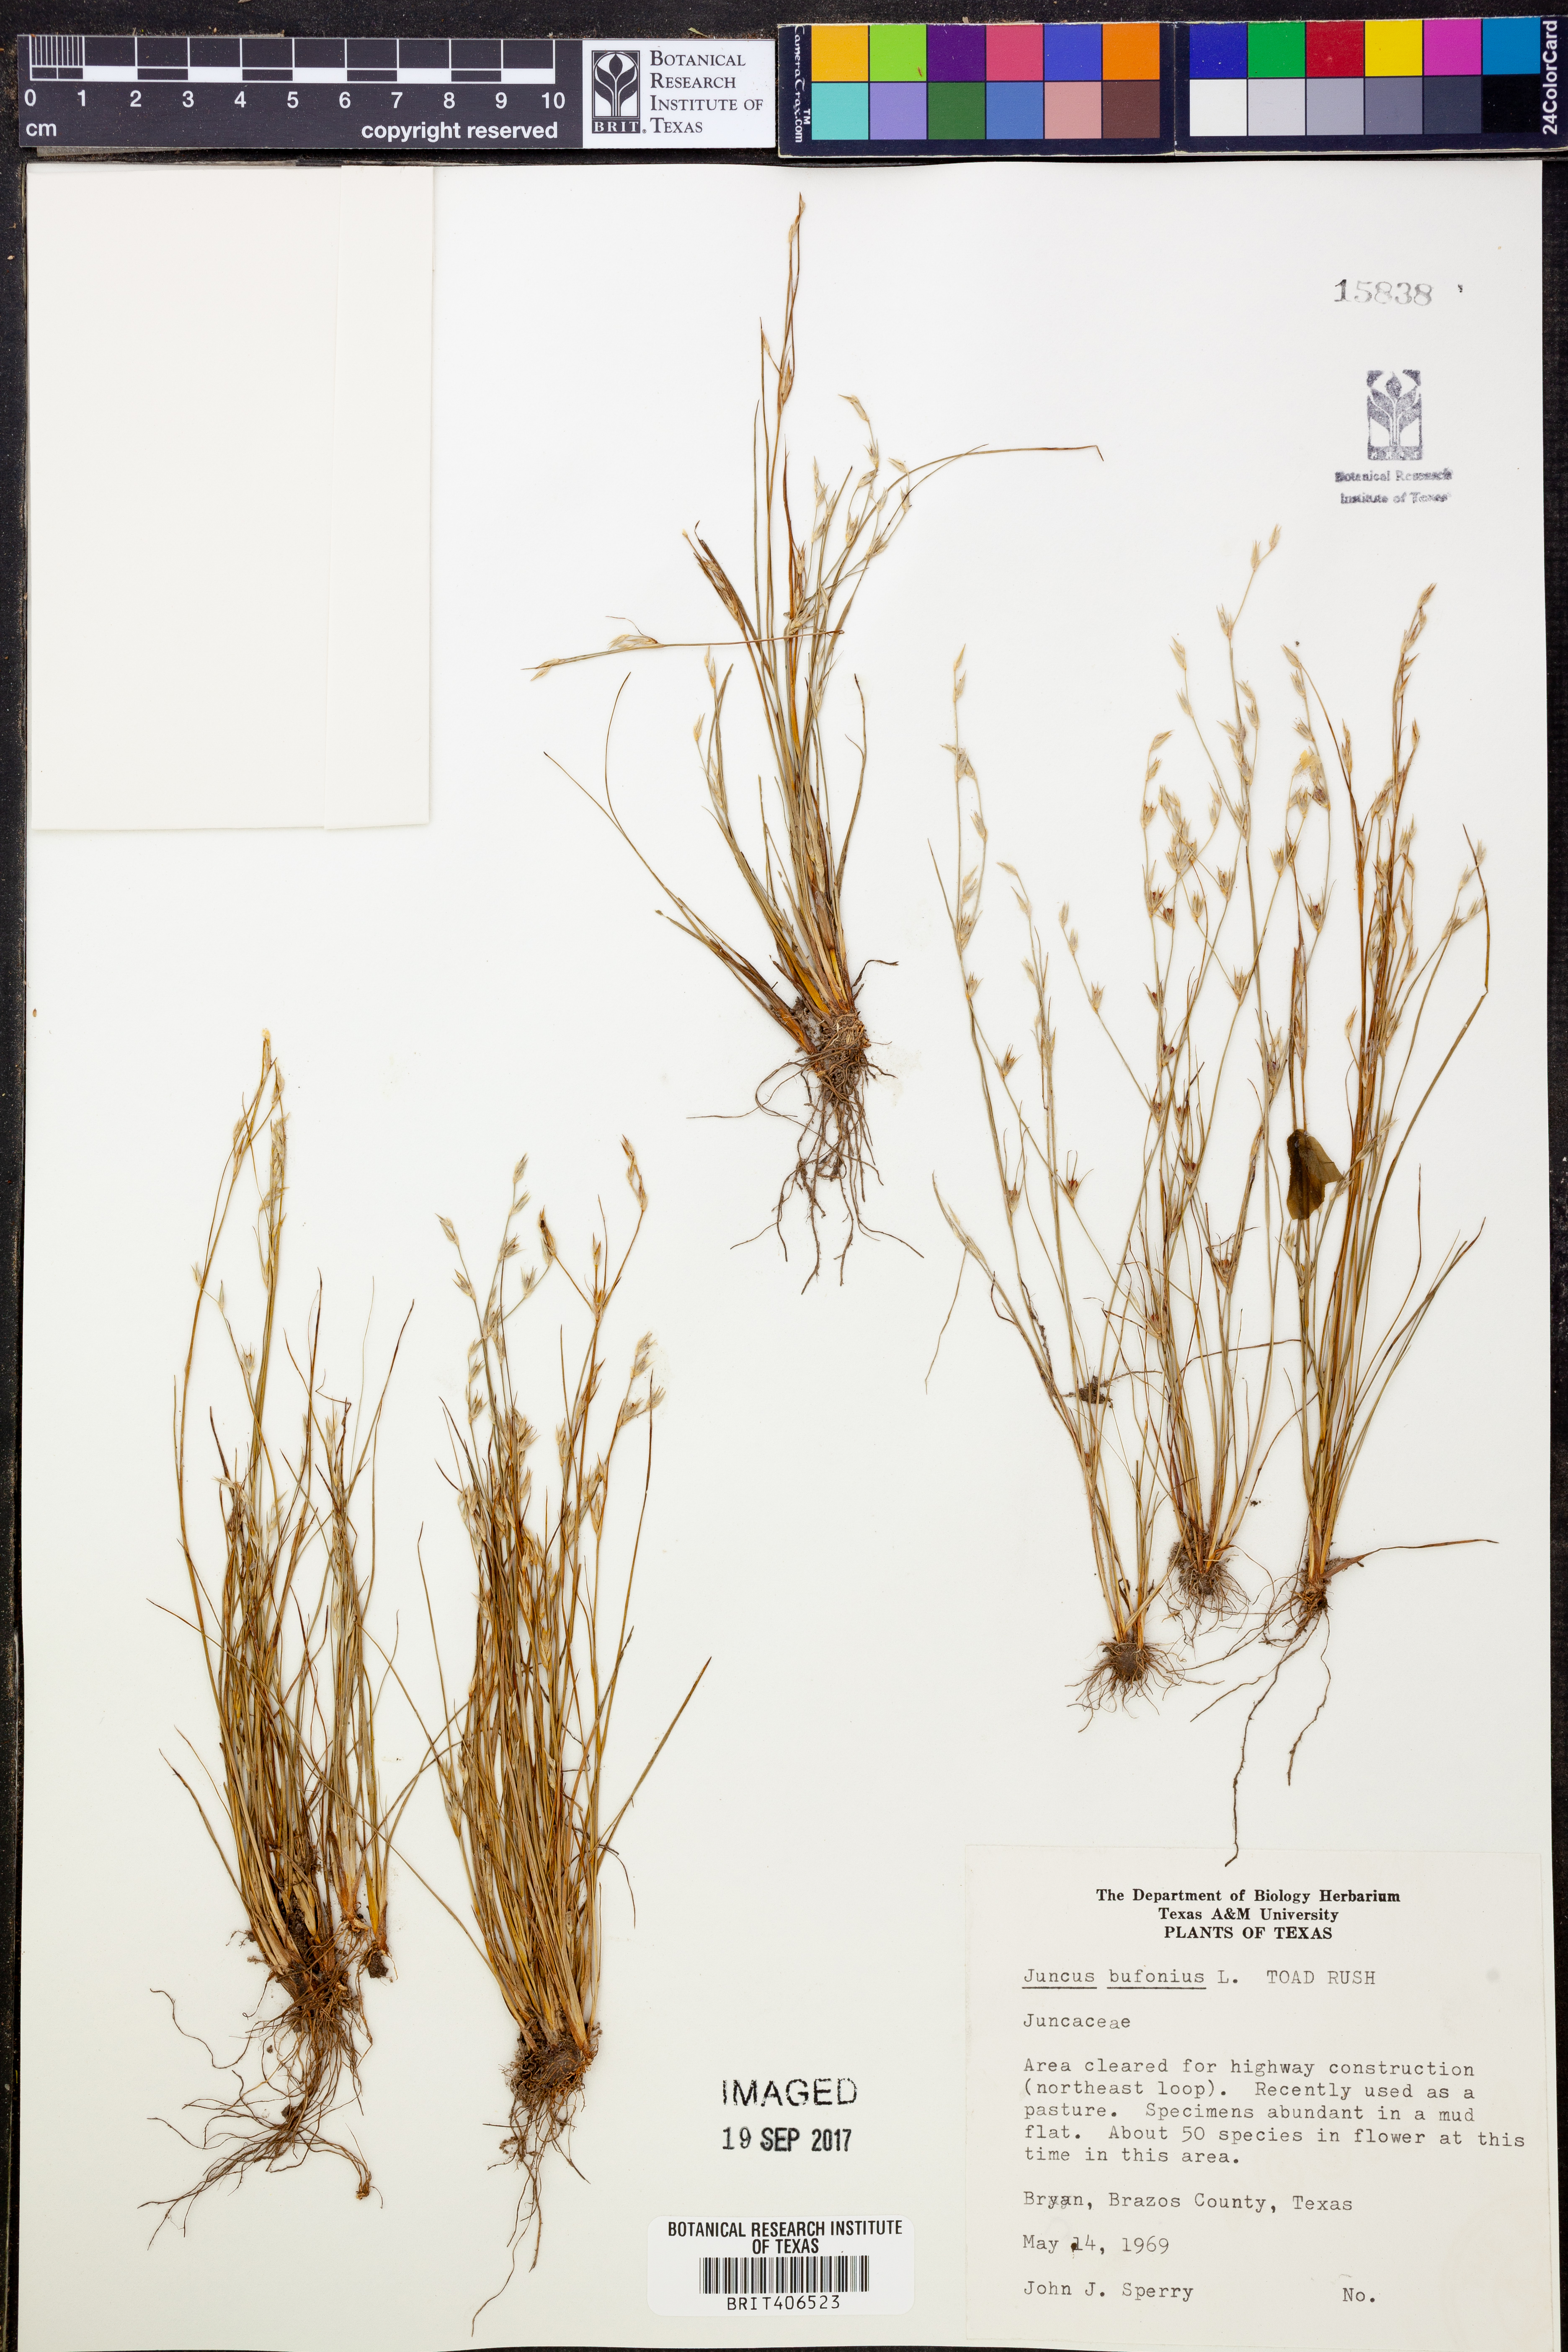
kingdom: Plantae
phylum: Tracheophyta
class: Liliopsida
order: Poales
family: Juncaceae
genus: Juncus
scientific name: Juncus bufonius
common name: Toad rush
